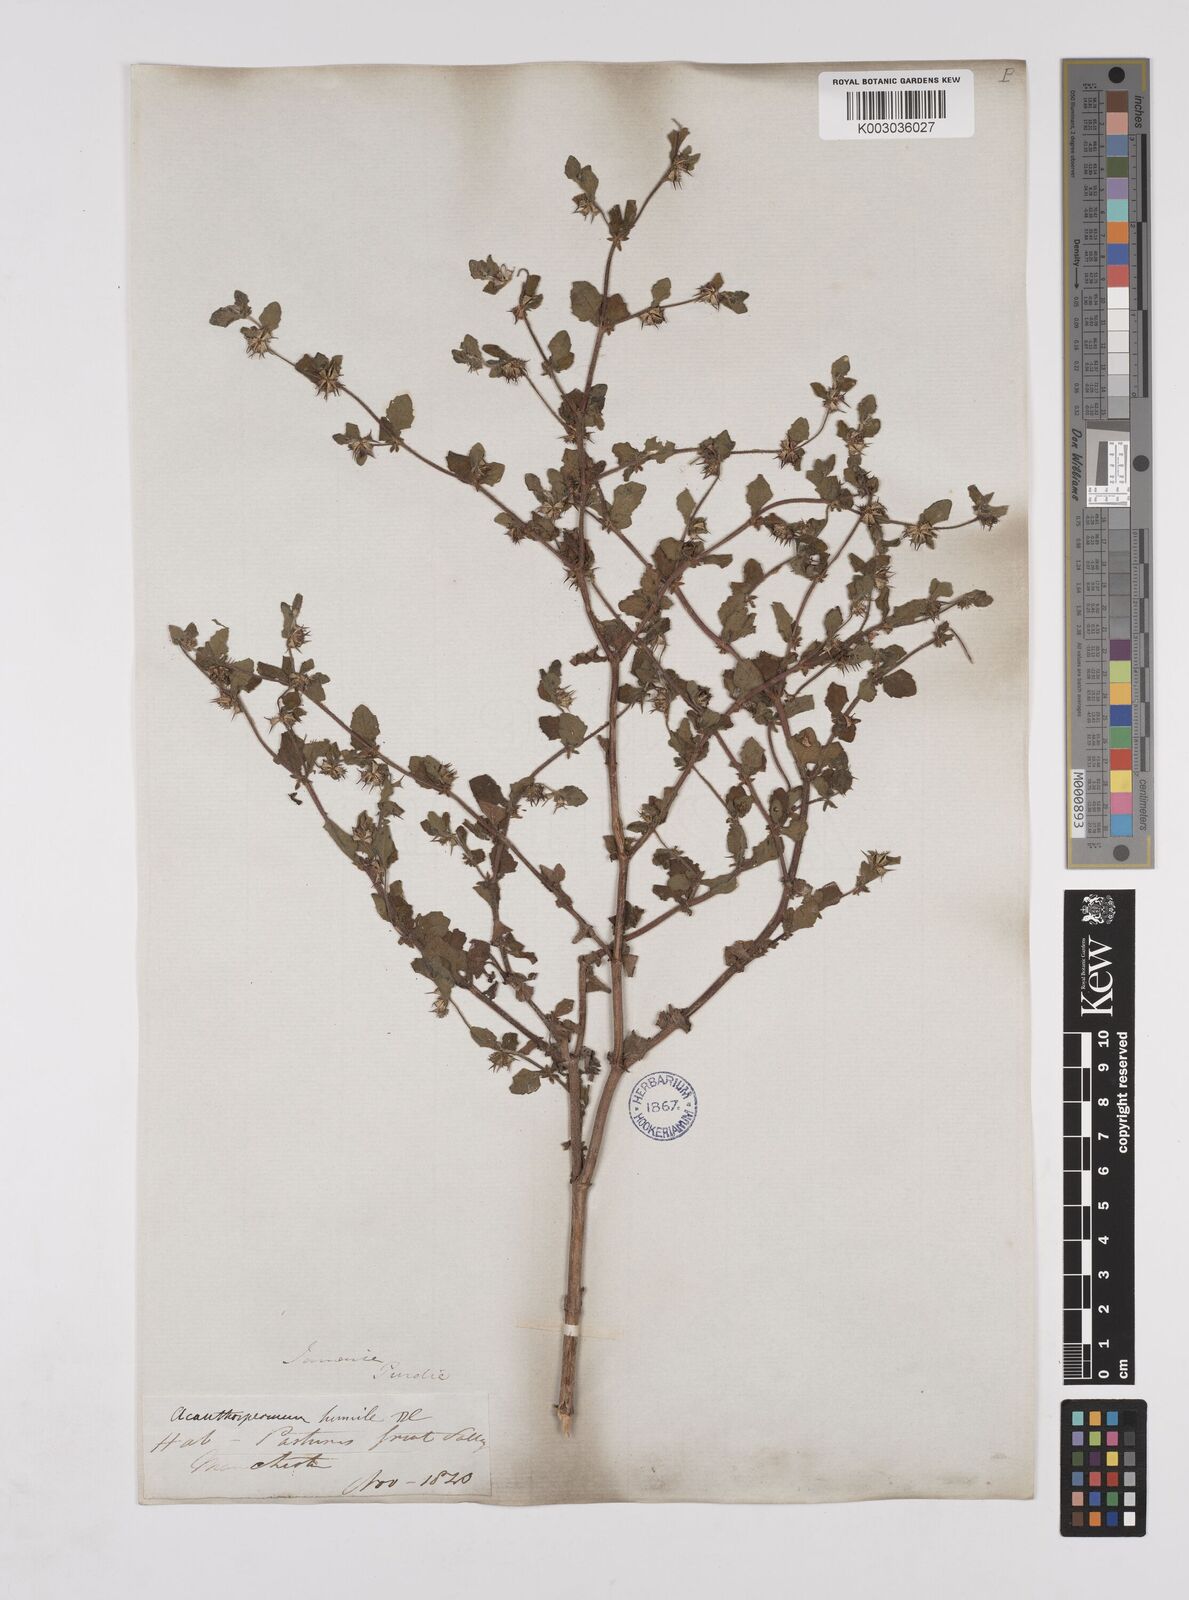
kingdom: Plantae
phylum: Tracheophyta
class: Magnoliopsida
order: Asterales
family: Asteraceae
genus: Acanthospermum
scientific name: Acanthospermum humile
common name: Low starbur
